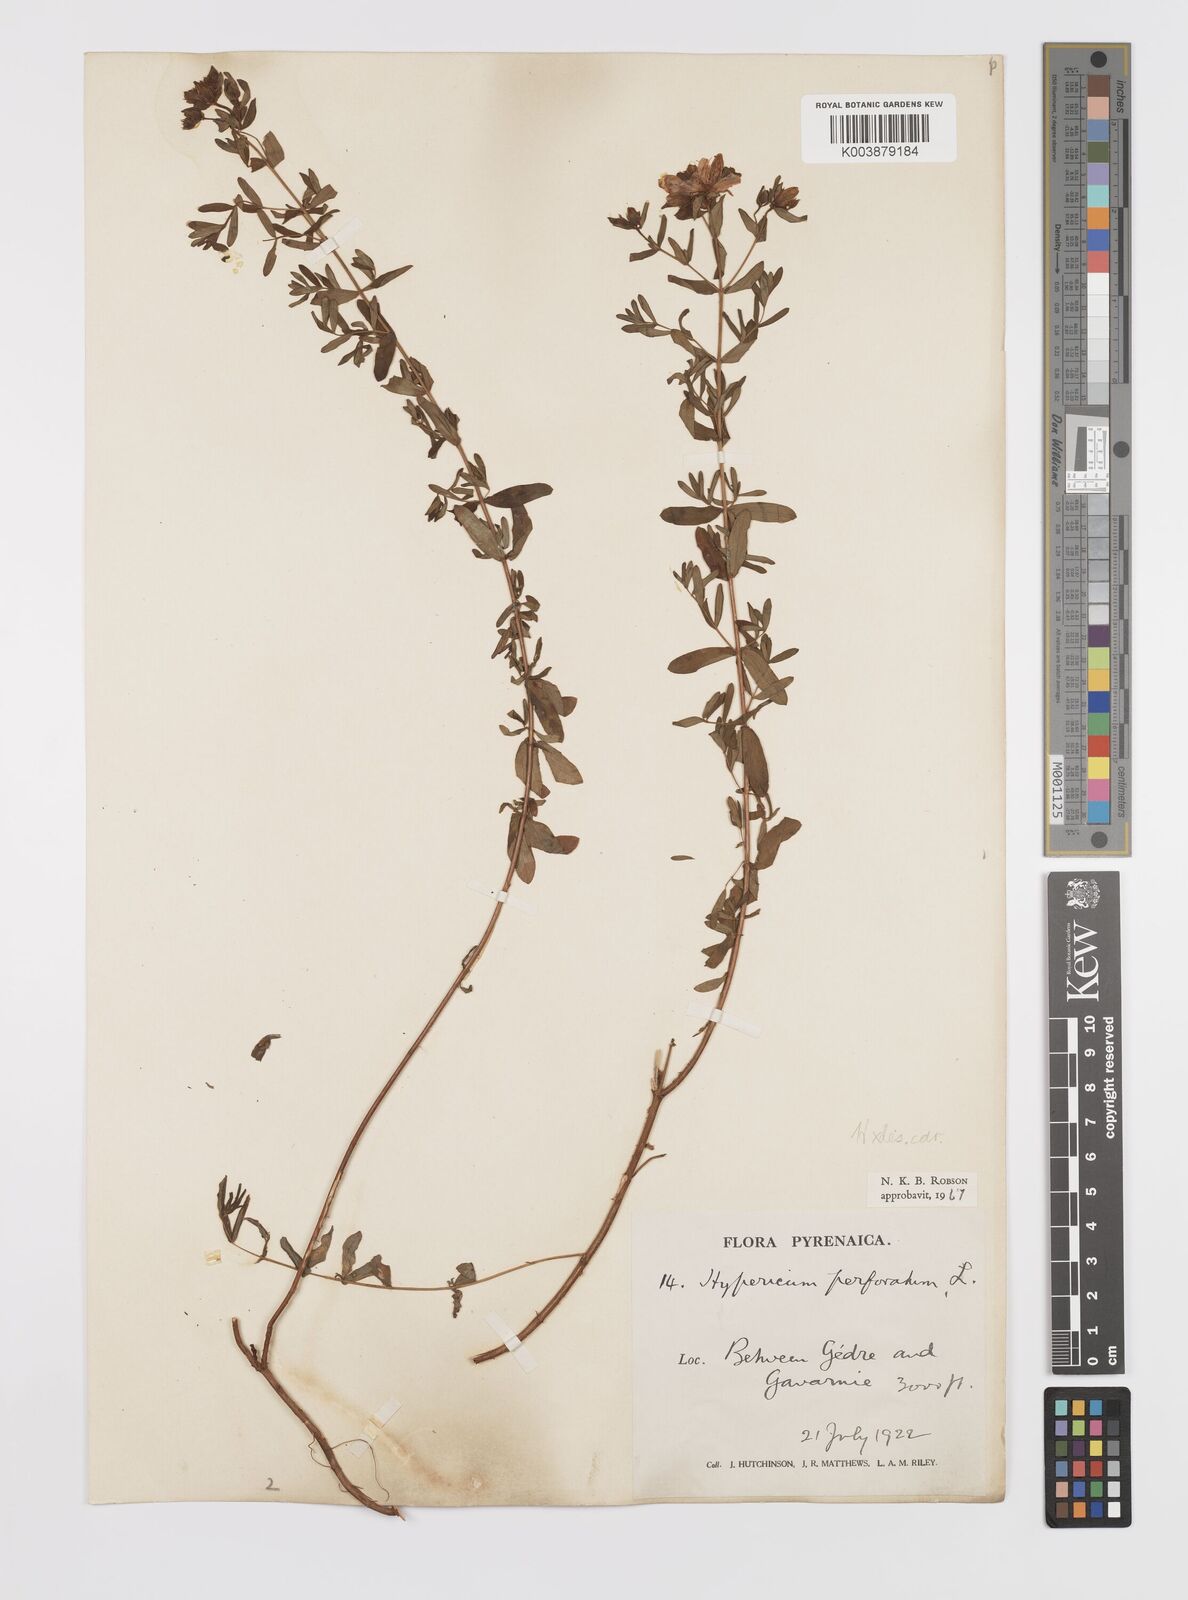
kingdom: Plantae
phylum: Tracheophyta
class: Magnoliopsida
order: Malpighiales
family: Hypericaceae
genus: Hypericum
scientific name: Hypericum carinthiacum
